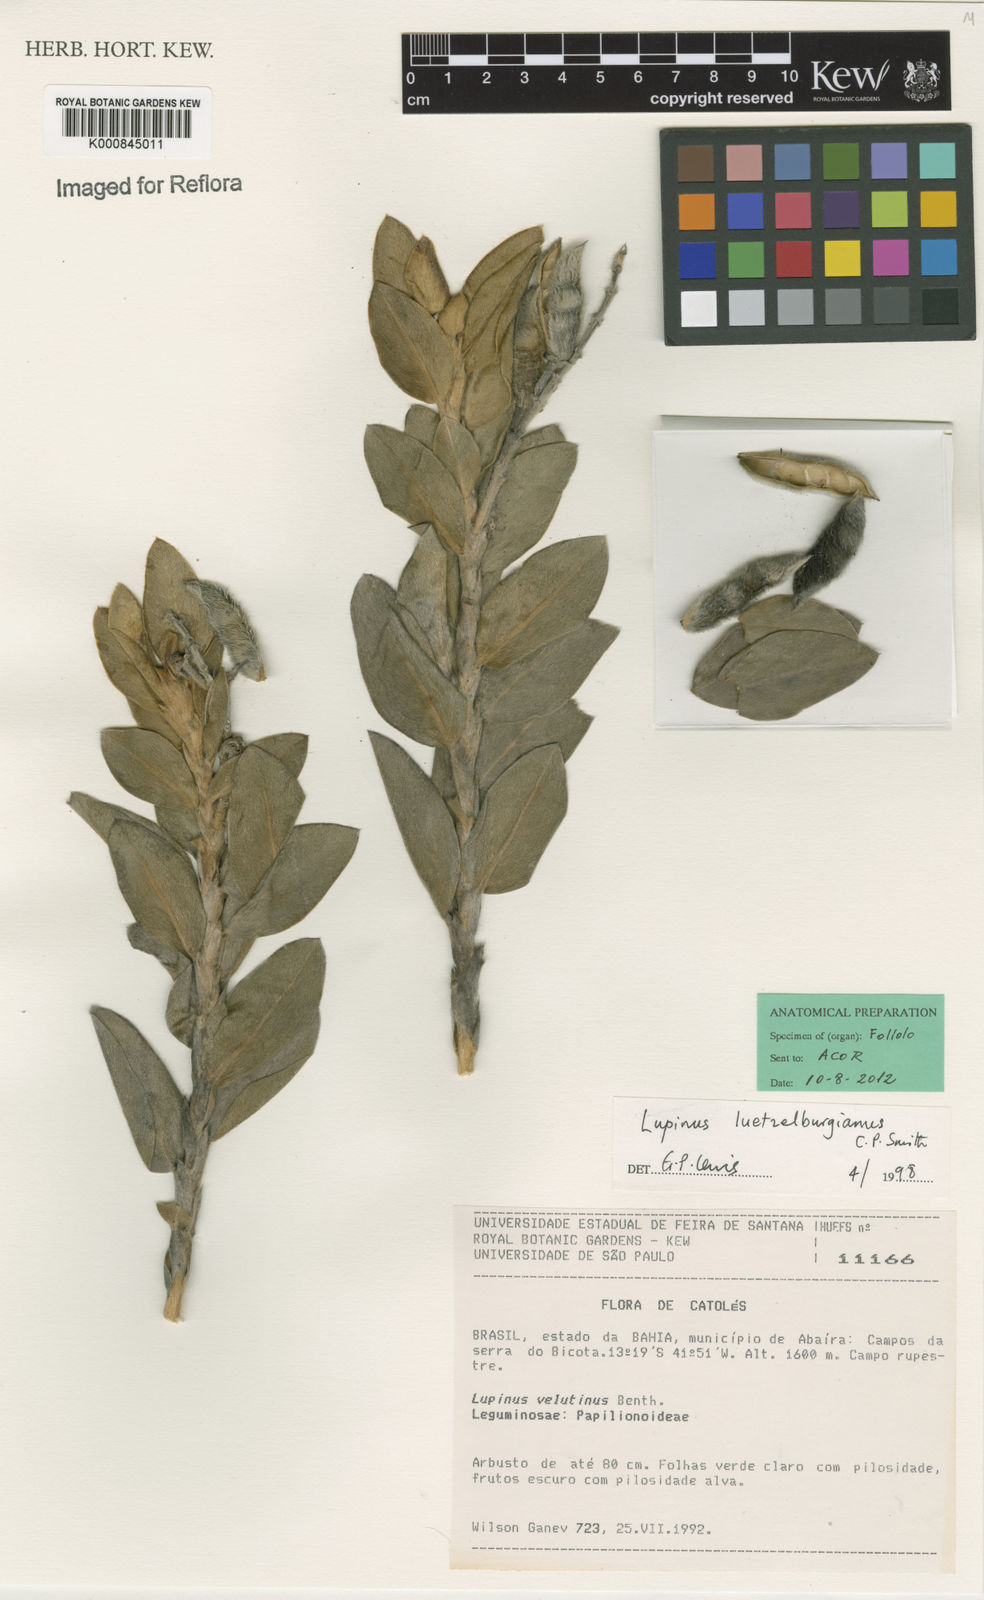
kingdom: Plantae
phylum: Tracheophyta
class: Magnoliopsida
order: Fabales
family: Fabaceae
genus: Lupinus
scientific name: Lupinus arenarius
